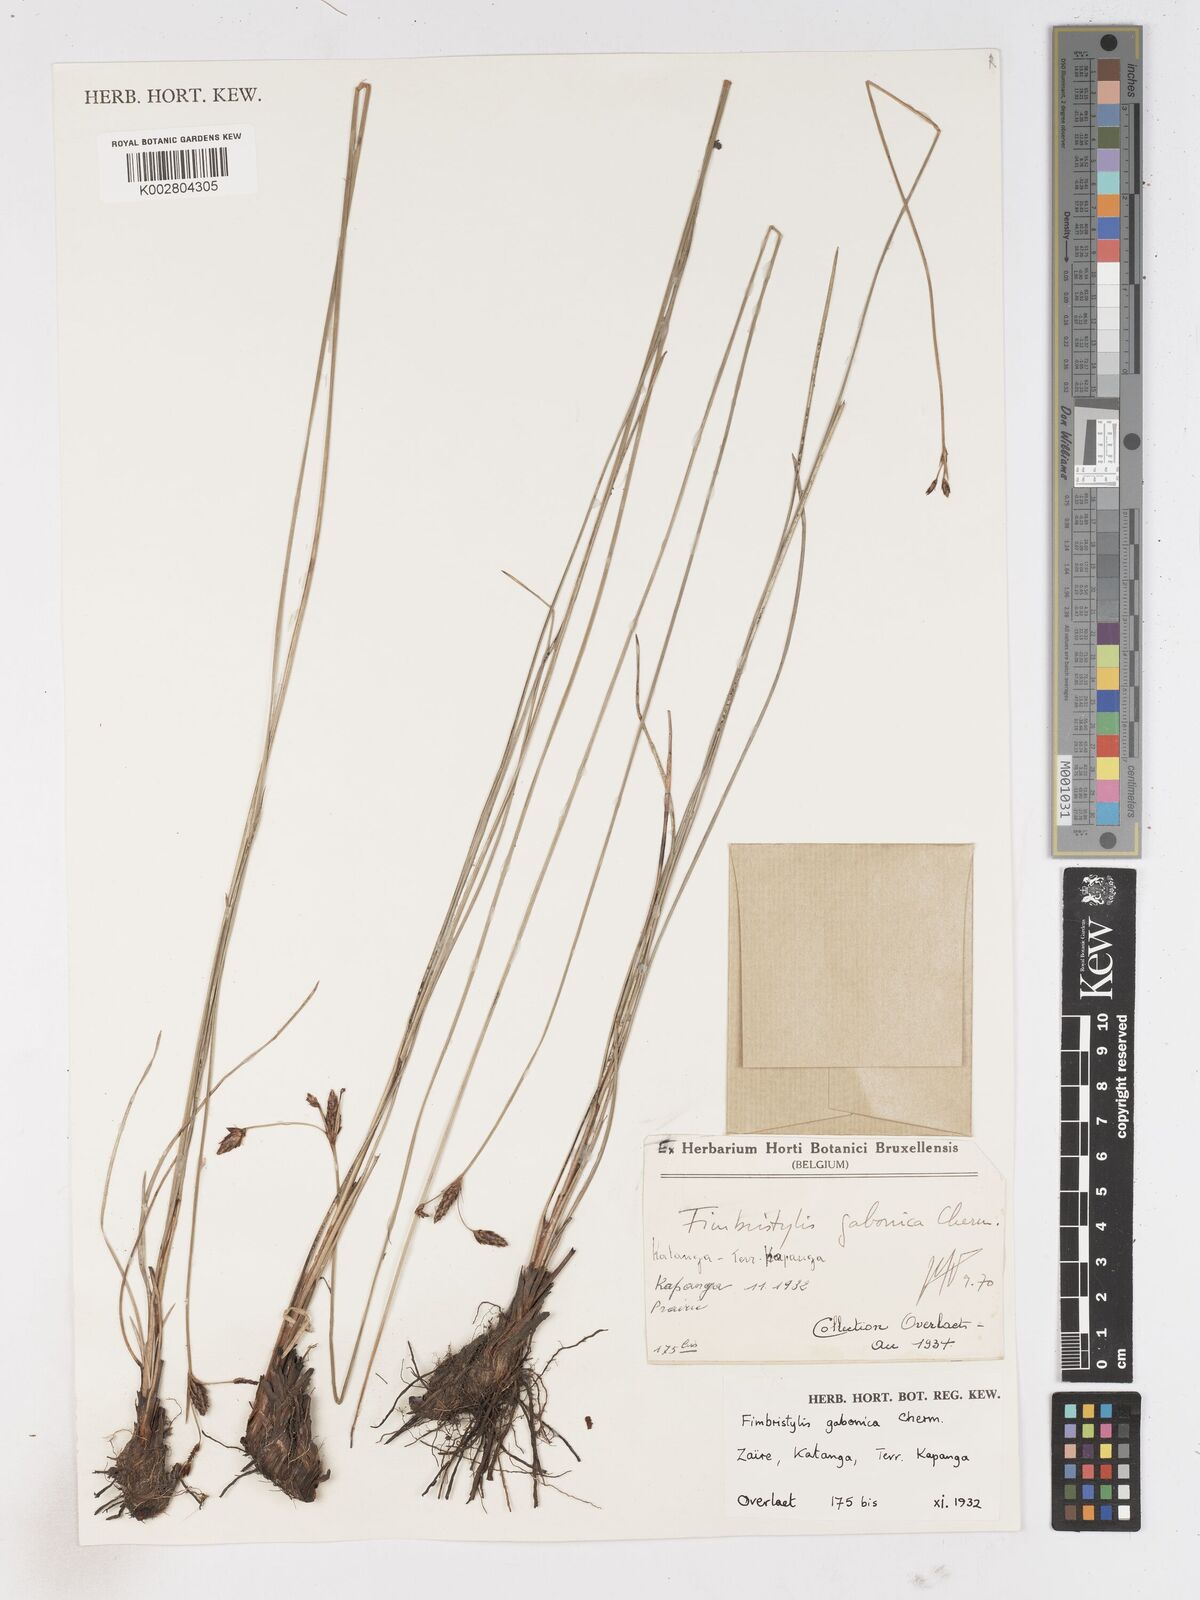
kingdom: Plantae
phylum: Tracheophyta
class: Liliopsida
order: Poales
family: Cyperaceae
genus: Fimbristylis
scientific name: Fimbristylis gabonica
